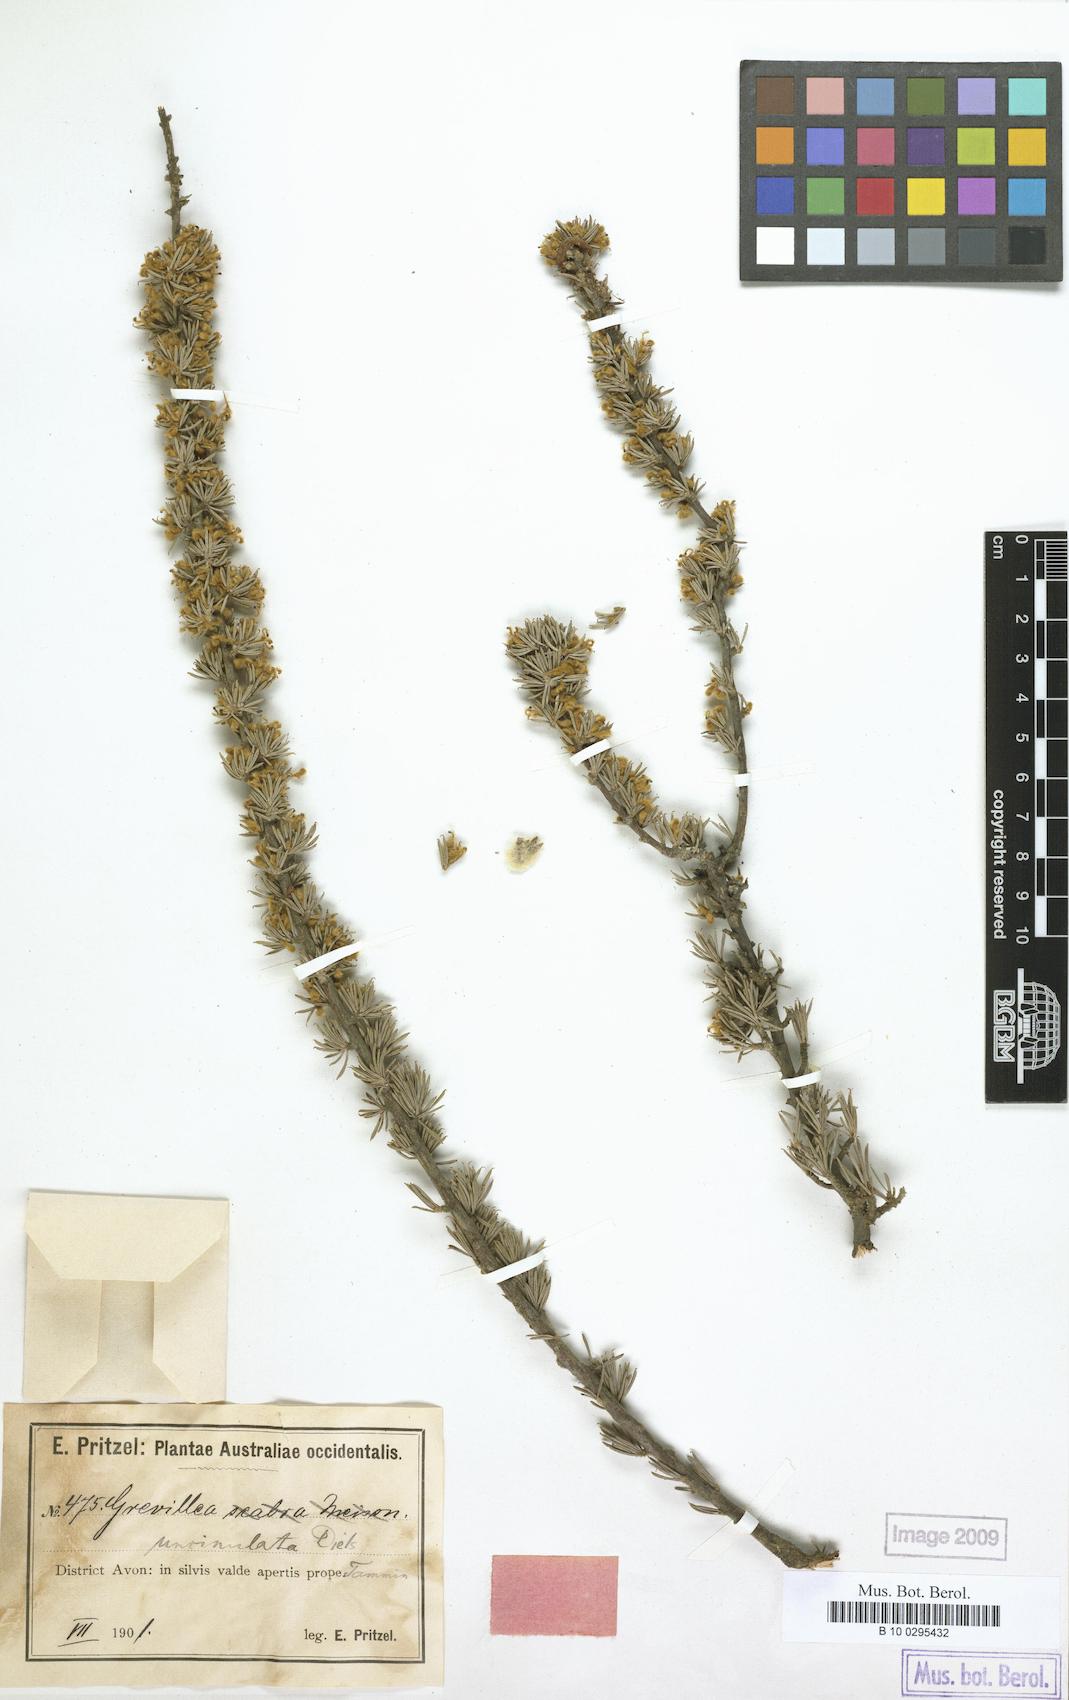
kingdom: Plantae
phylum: Tracheophyta
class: Magnoliopsida
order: Proteales
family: Proteaceae
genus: Grevillea
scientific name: Grevillea uncinulata
